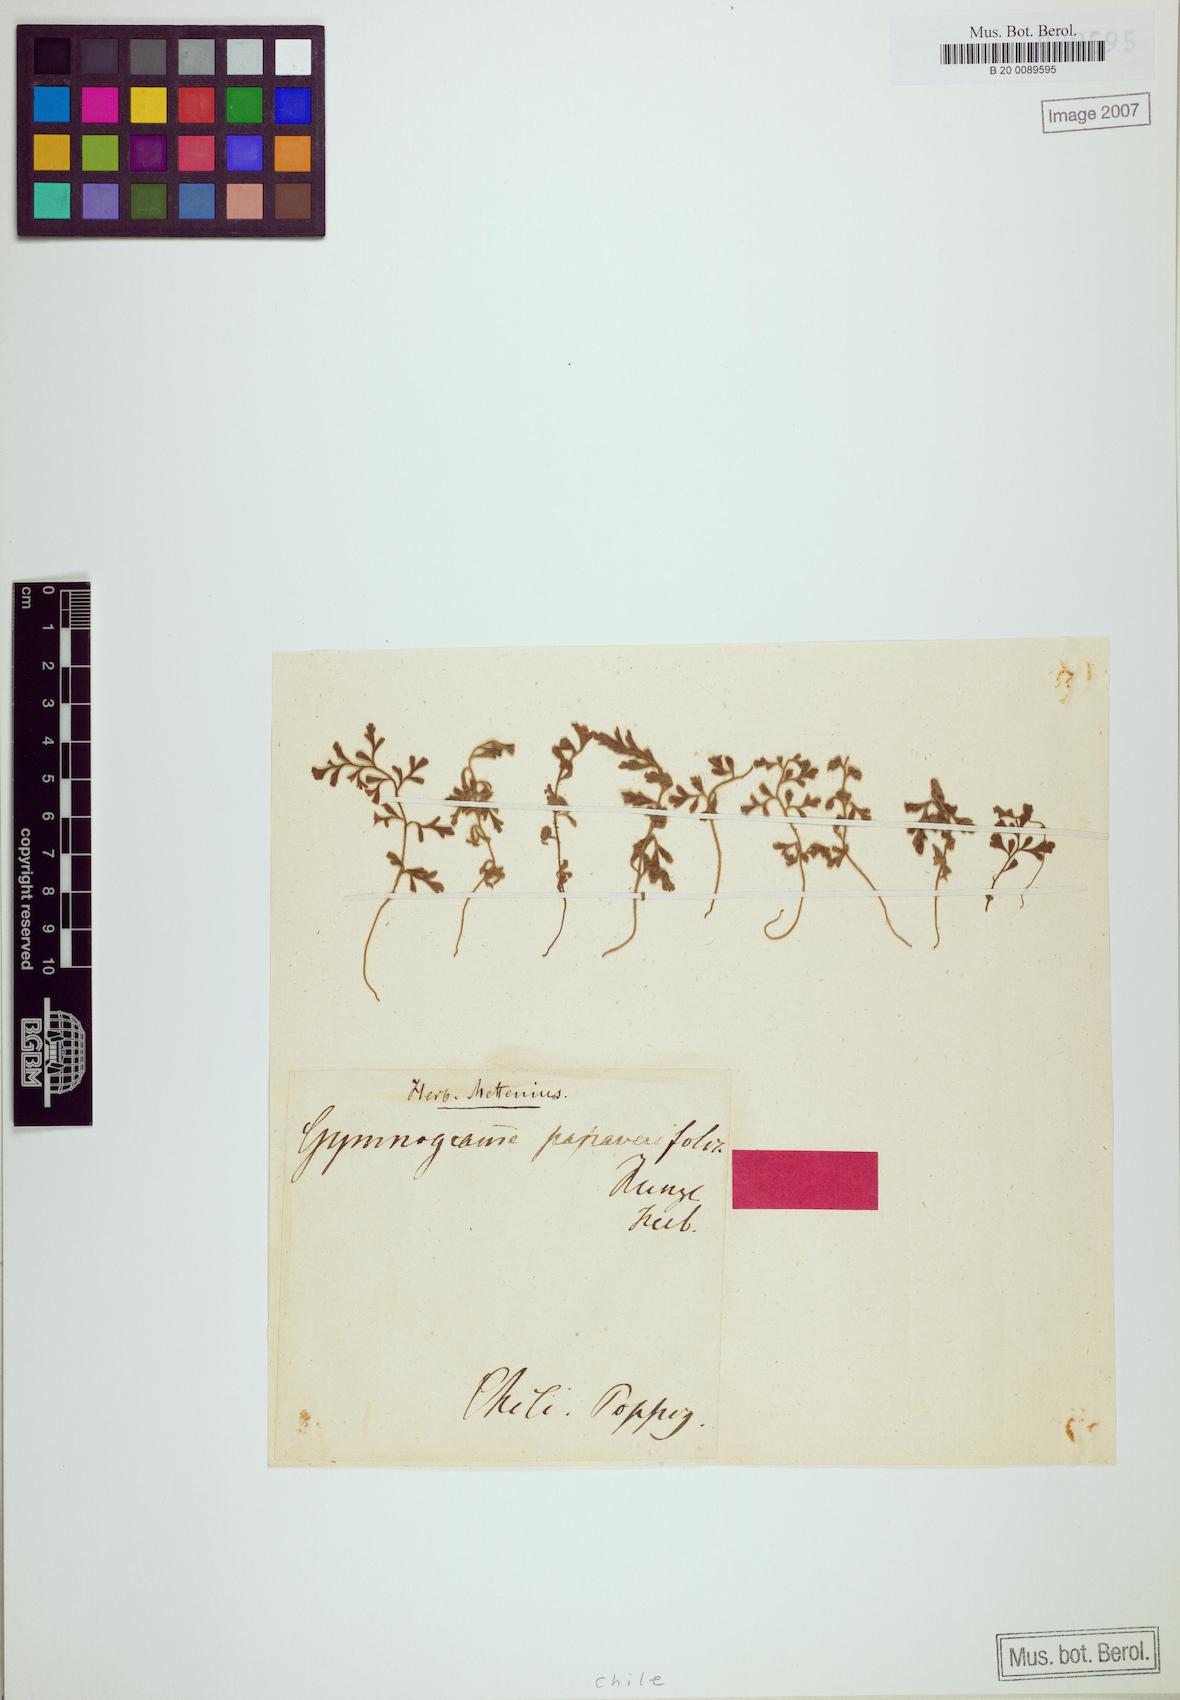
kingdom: Plantae
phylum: Tracheophyta
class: Polypodiopsida
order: Polypodiales
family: Aspleniaceae
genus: Asplenium
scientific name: Asplenium papaverifolium
